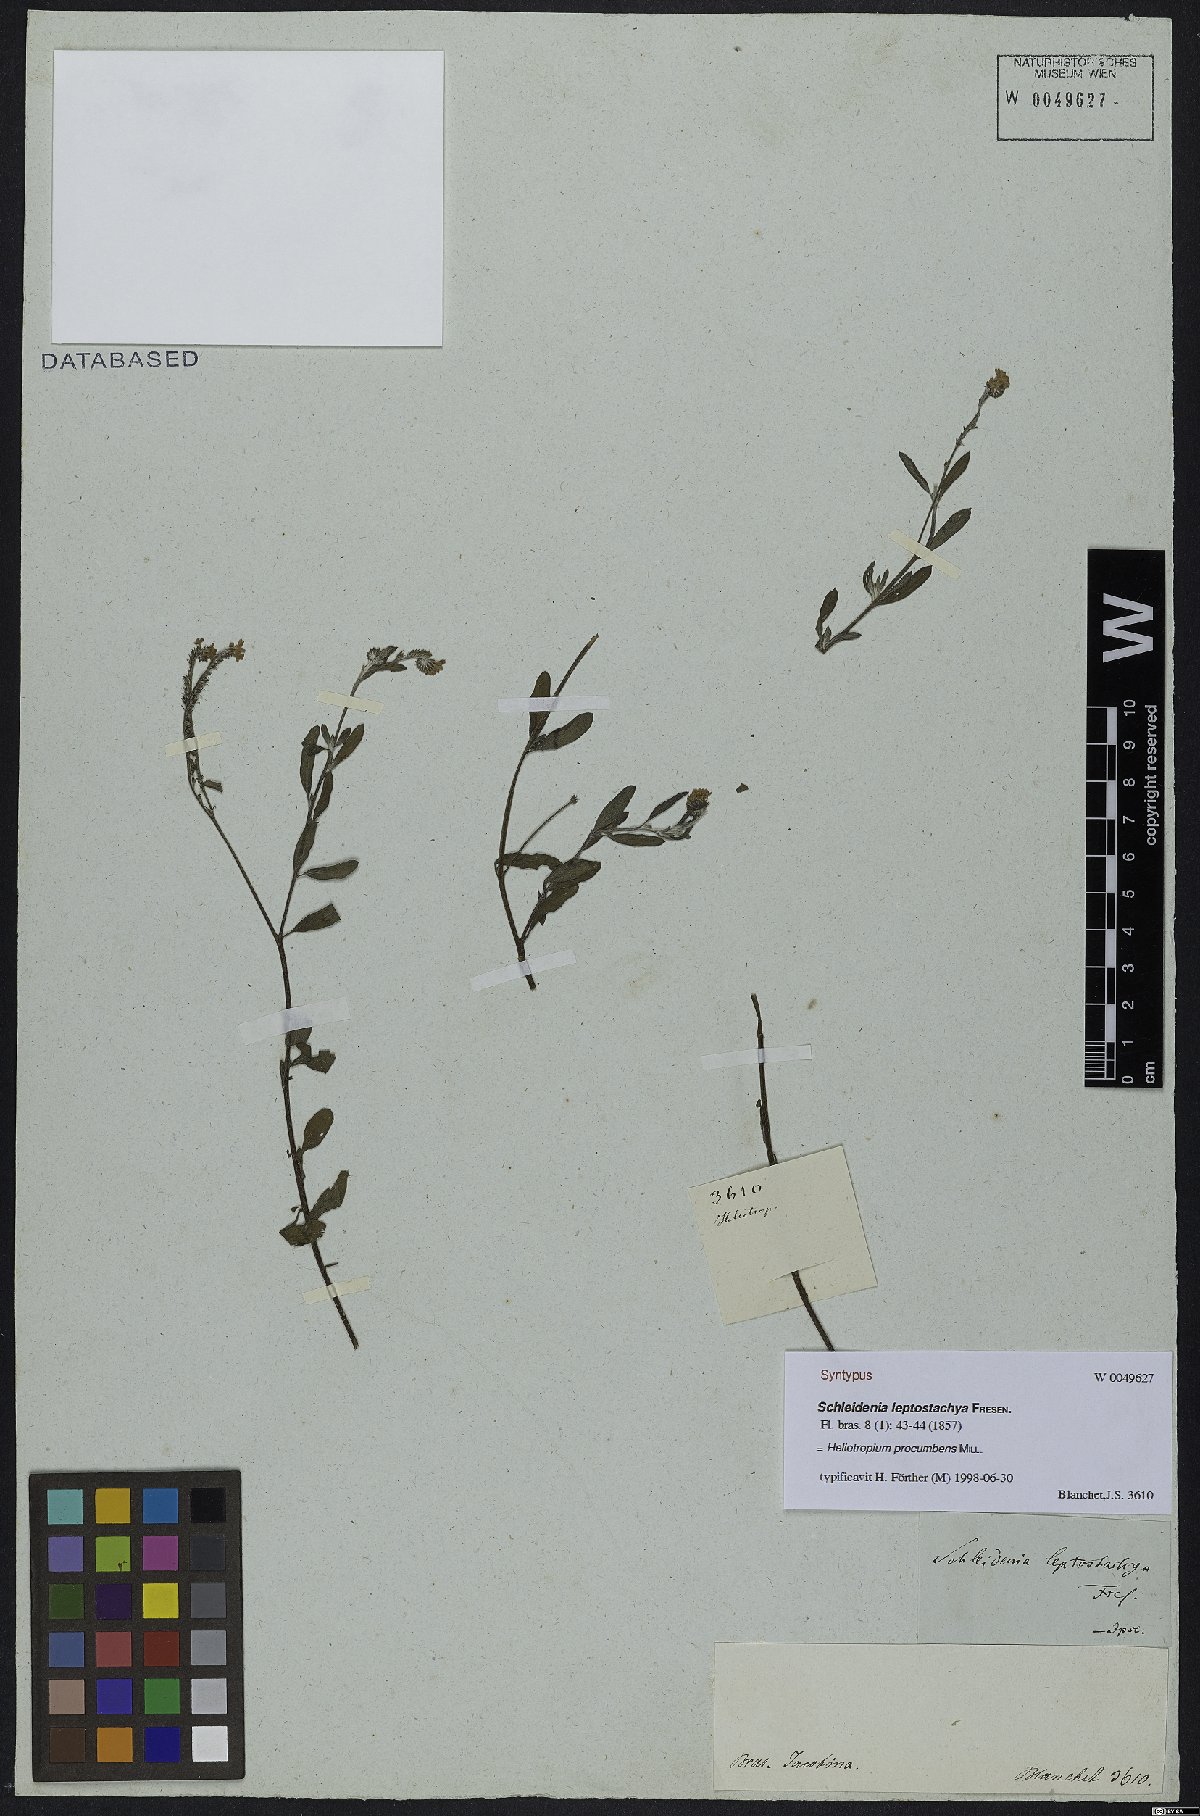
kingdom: Plantae
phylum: Tracheophyta
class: Magnoliopsida
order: Boraginales
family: Heliotropiaceae
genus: Euploca
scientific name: Euploca procumbens
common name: Fourspike heliotrope
